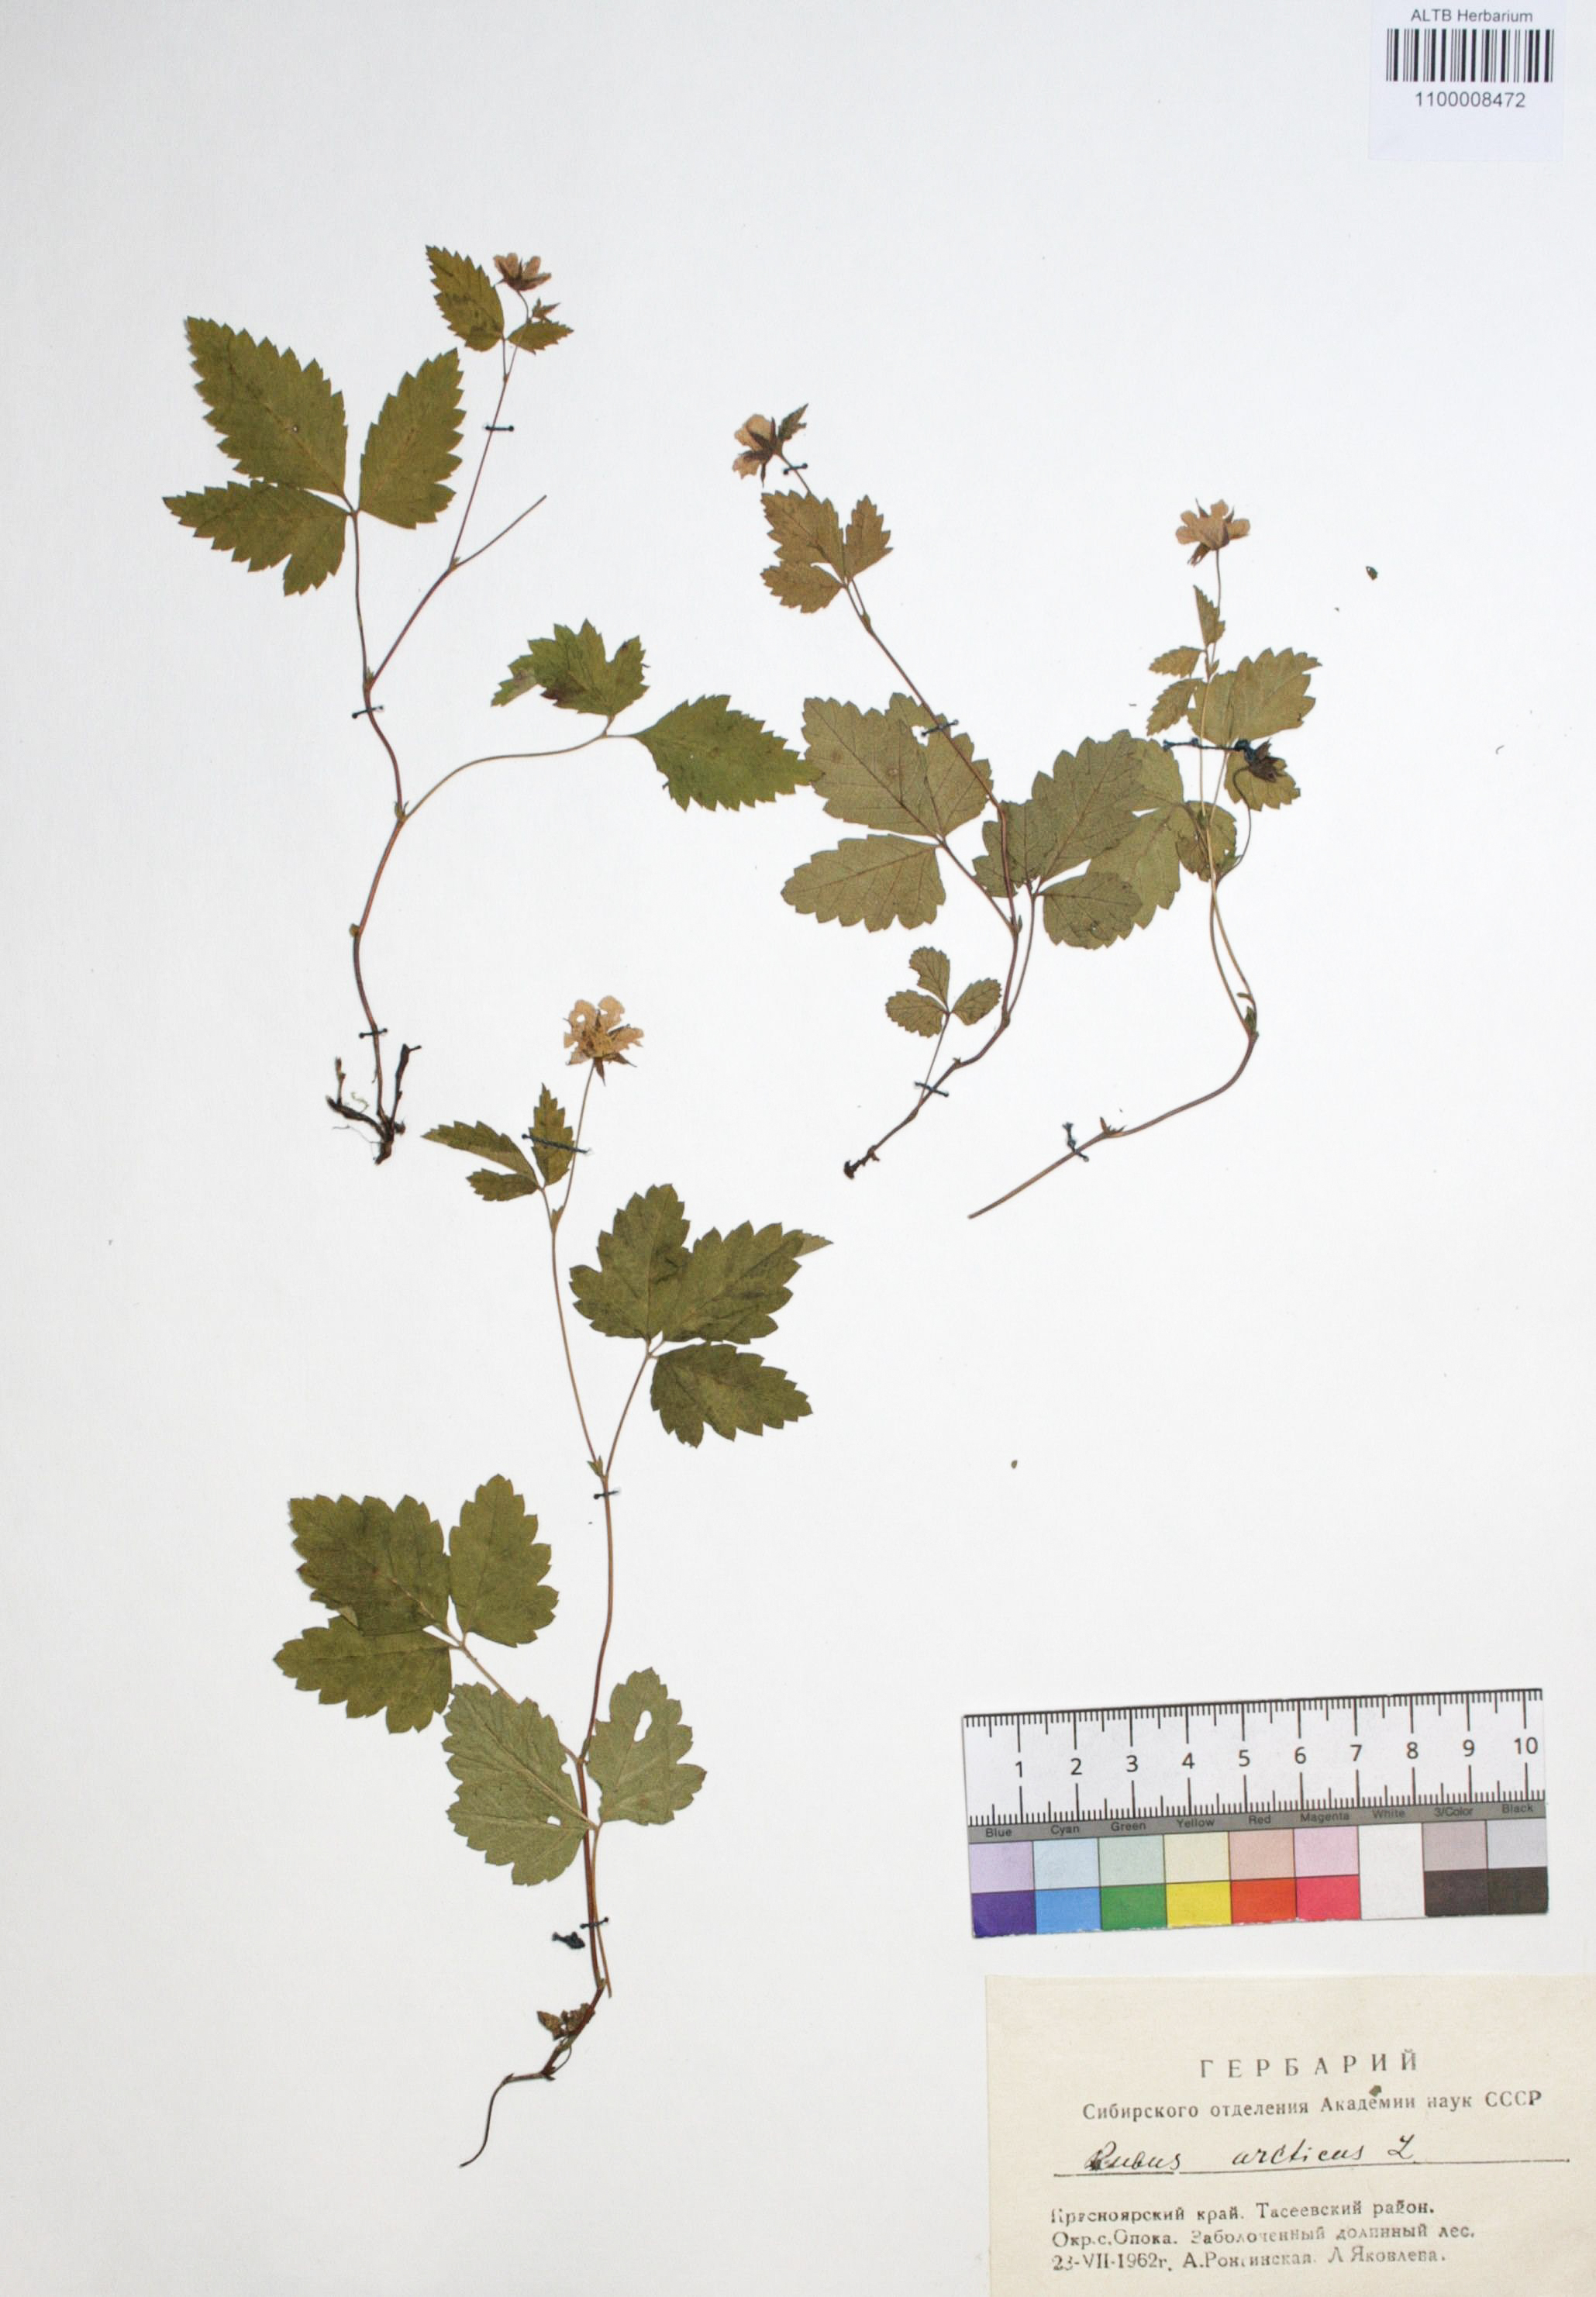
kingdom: Plantae
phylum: Tracheophyta
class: Magnoliopsida
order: Rosales
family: Rosaceae
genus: Rubus
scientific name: Rubus arcticus
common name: Arctic bramble
